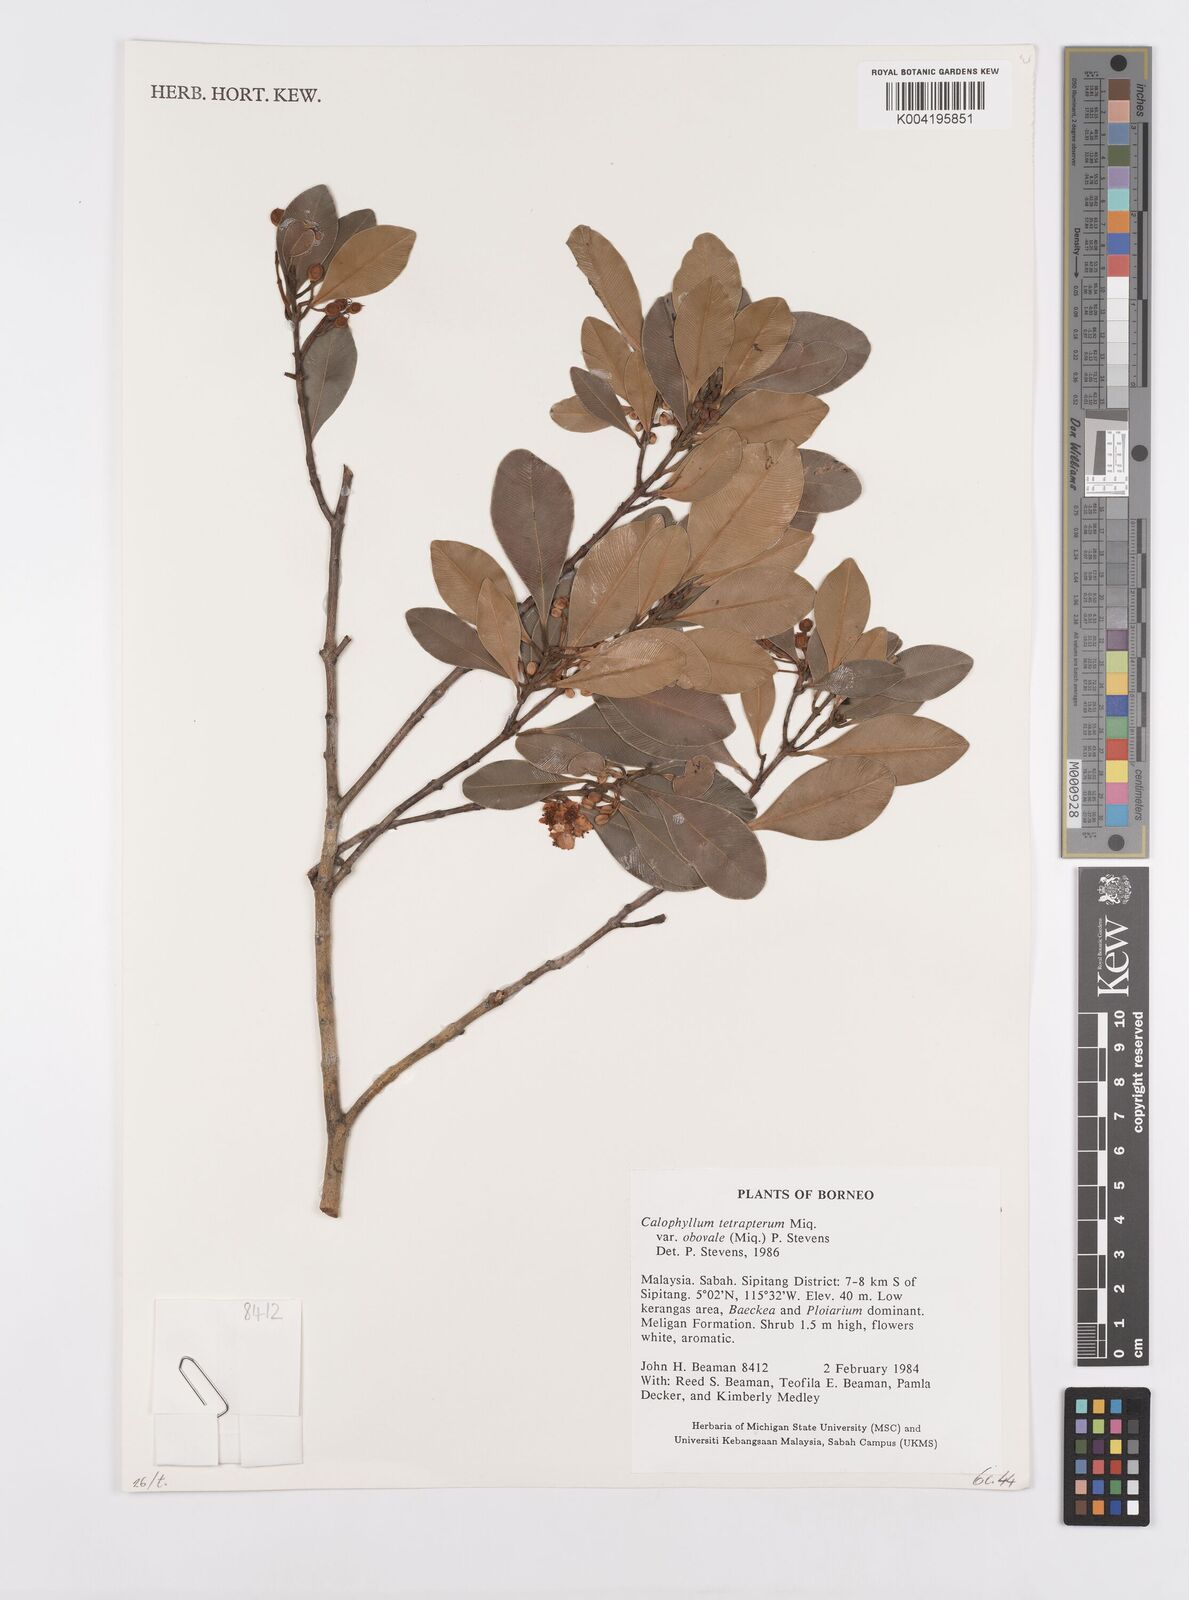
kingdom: Plantae
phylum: Tracheophyta
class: Magnoliopsida
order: Malpighiales
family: Calophyllaceae
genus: Calophyllum
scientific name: Calophyllum tetrapterum
